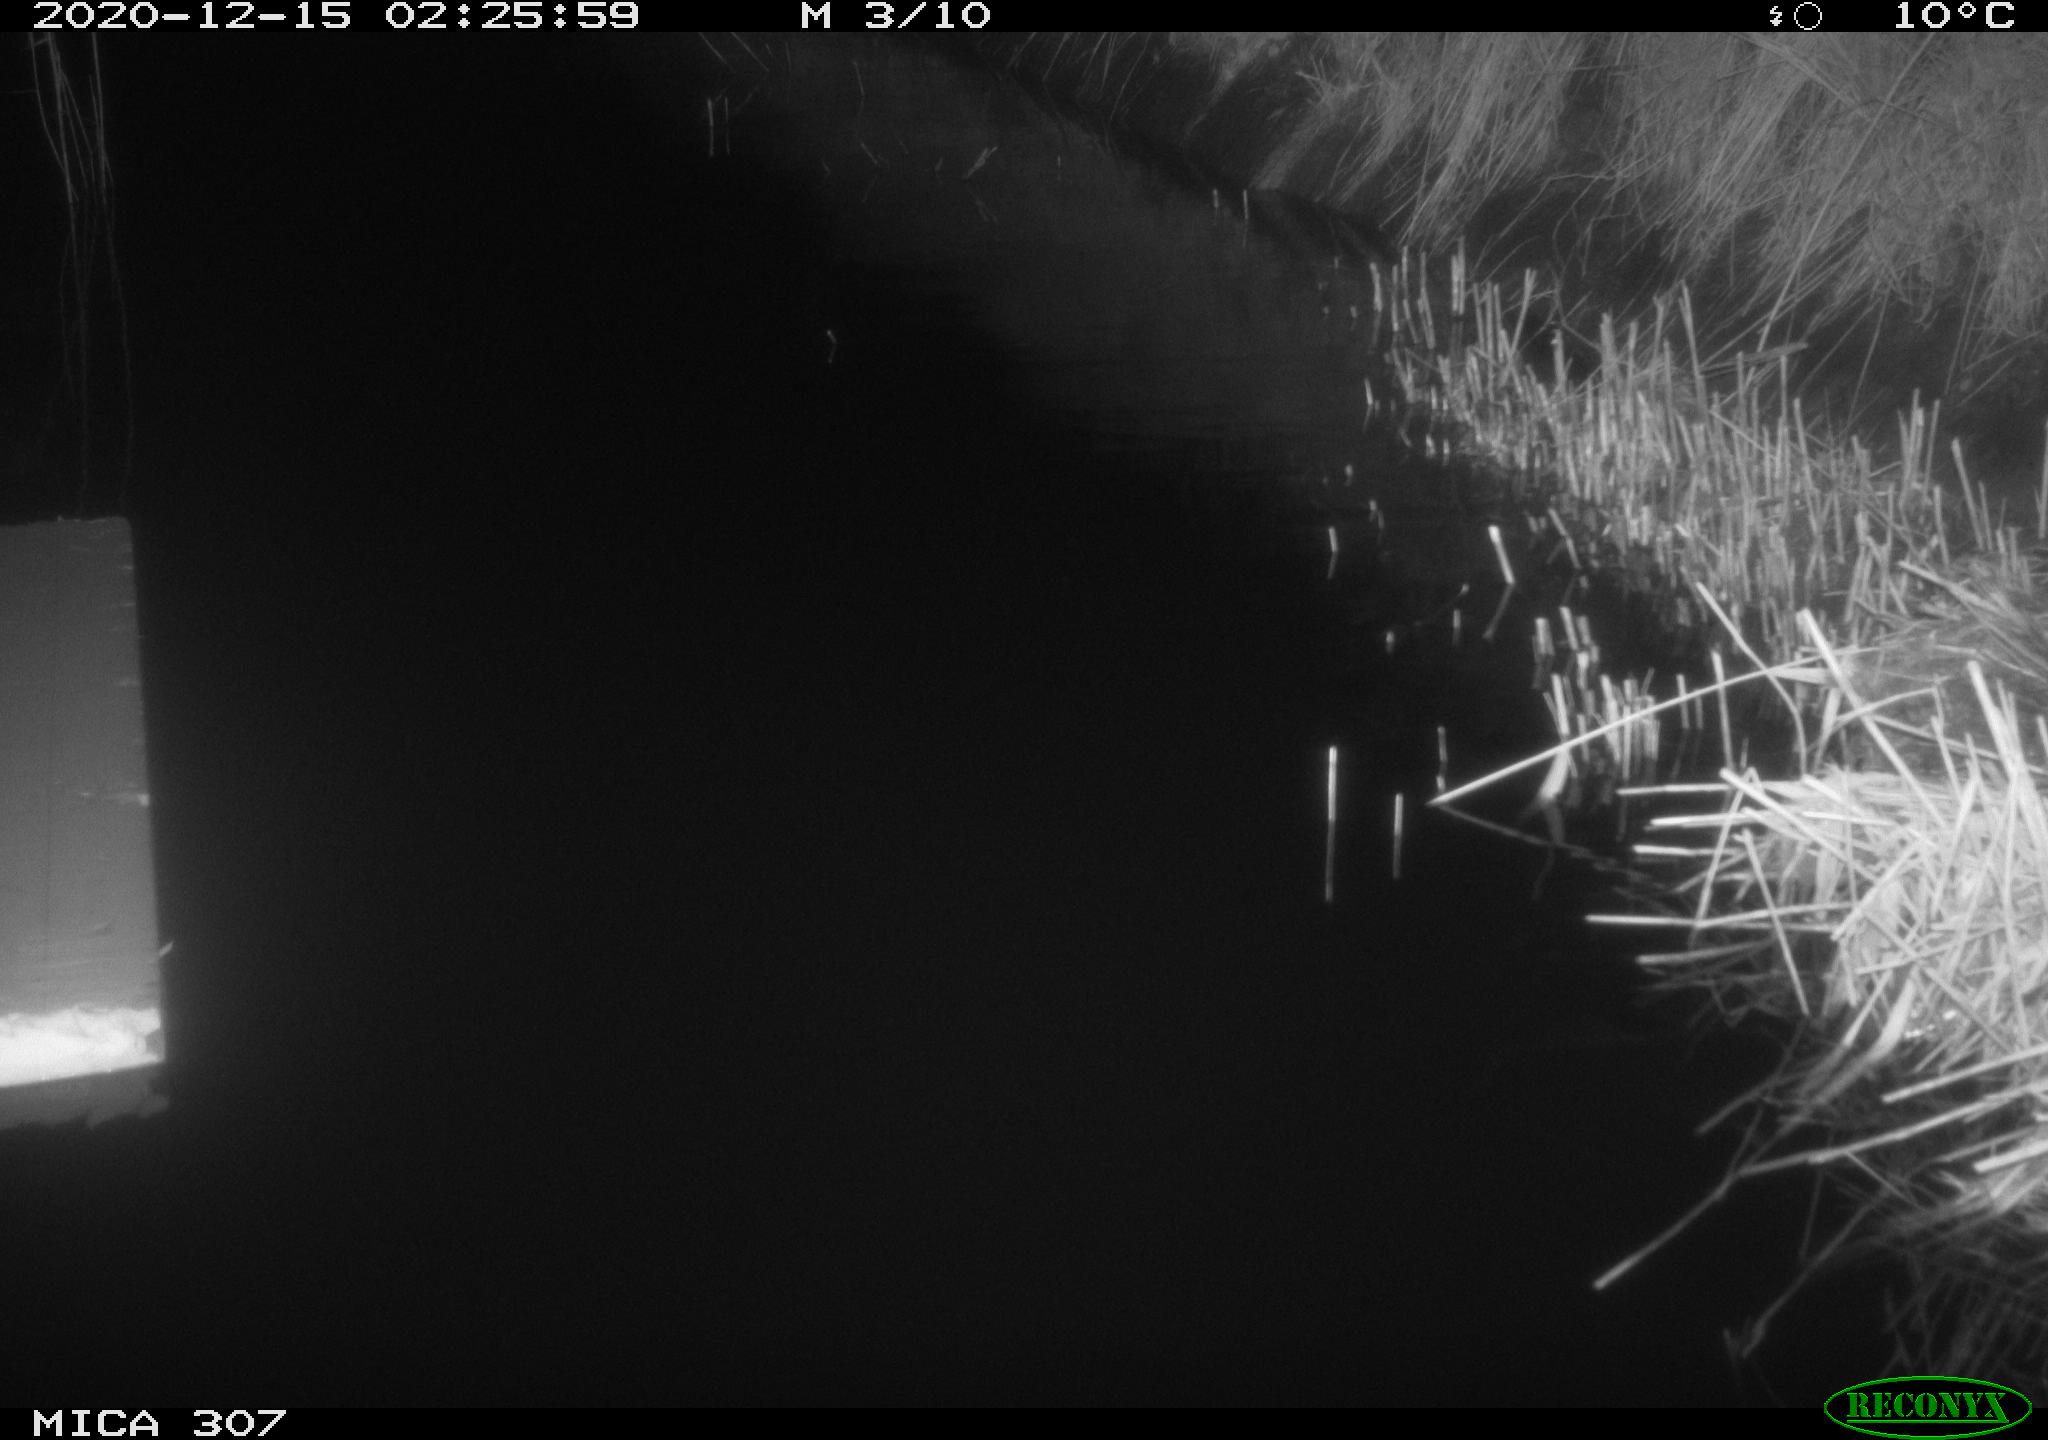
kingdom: Animalia
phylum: Chordata
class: Mammalia
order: Rodentia
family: Muridae
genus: Rattus
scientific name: Rattus norvegicus
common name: Brown rat
